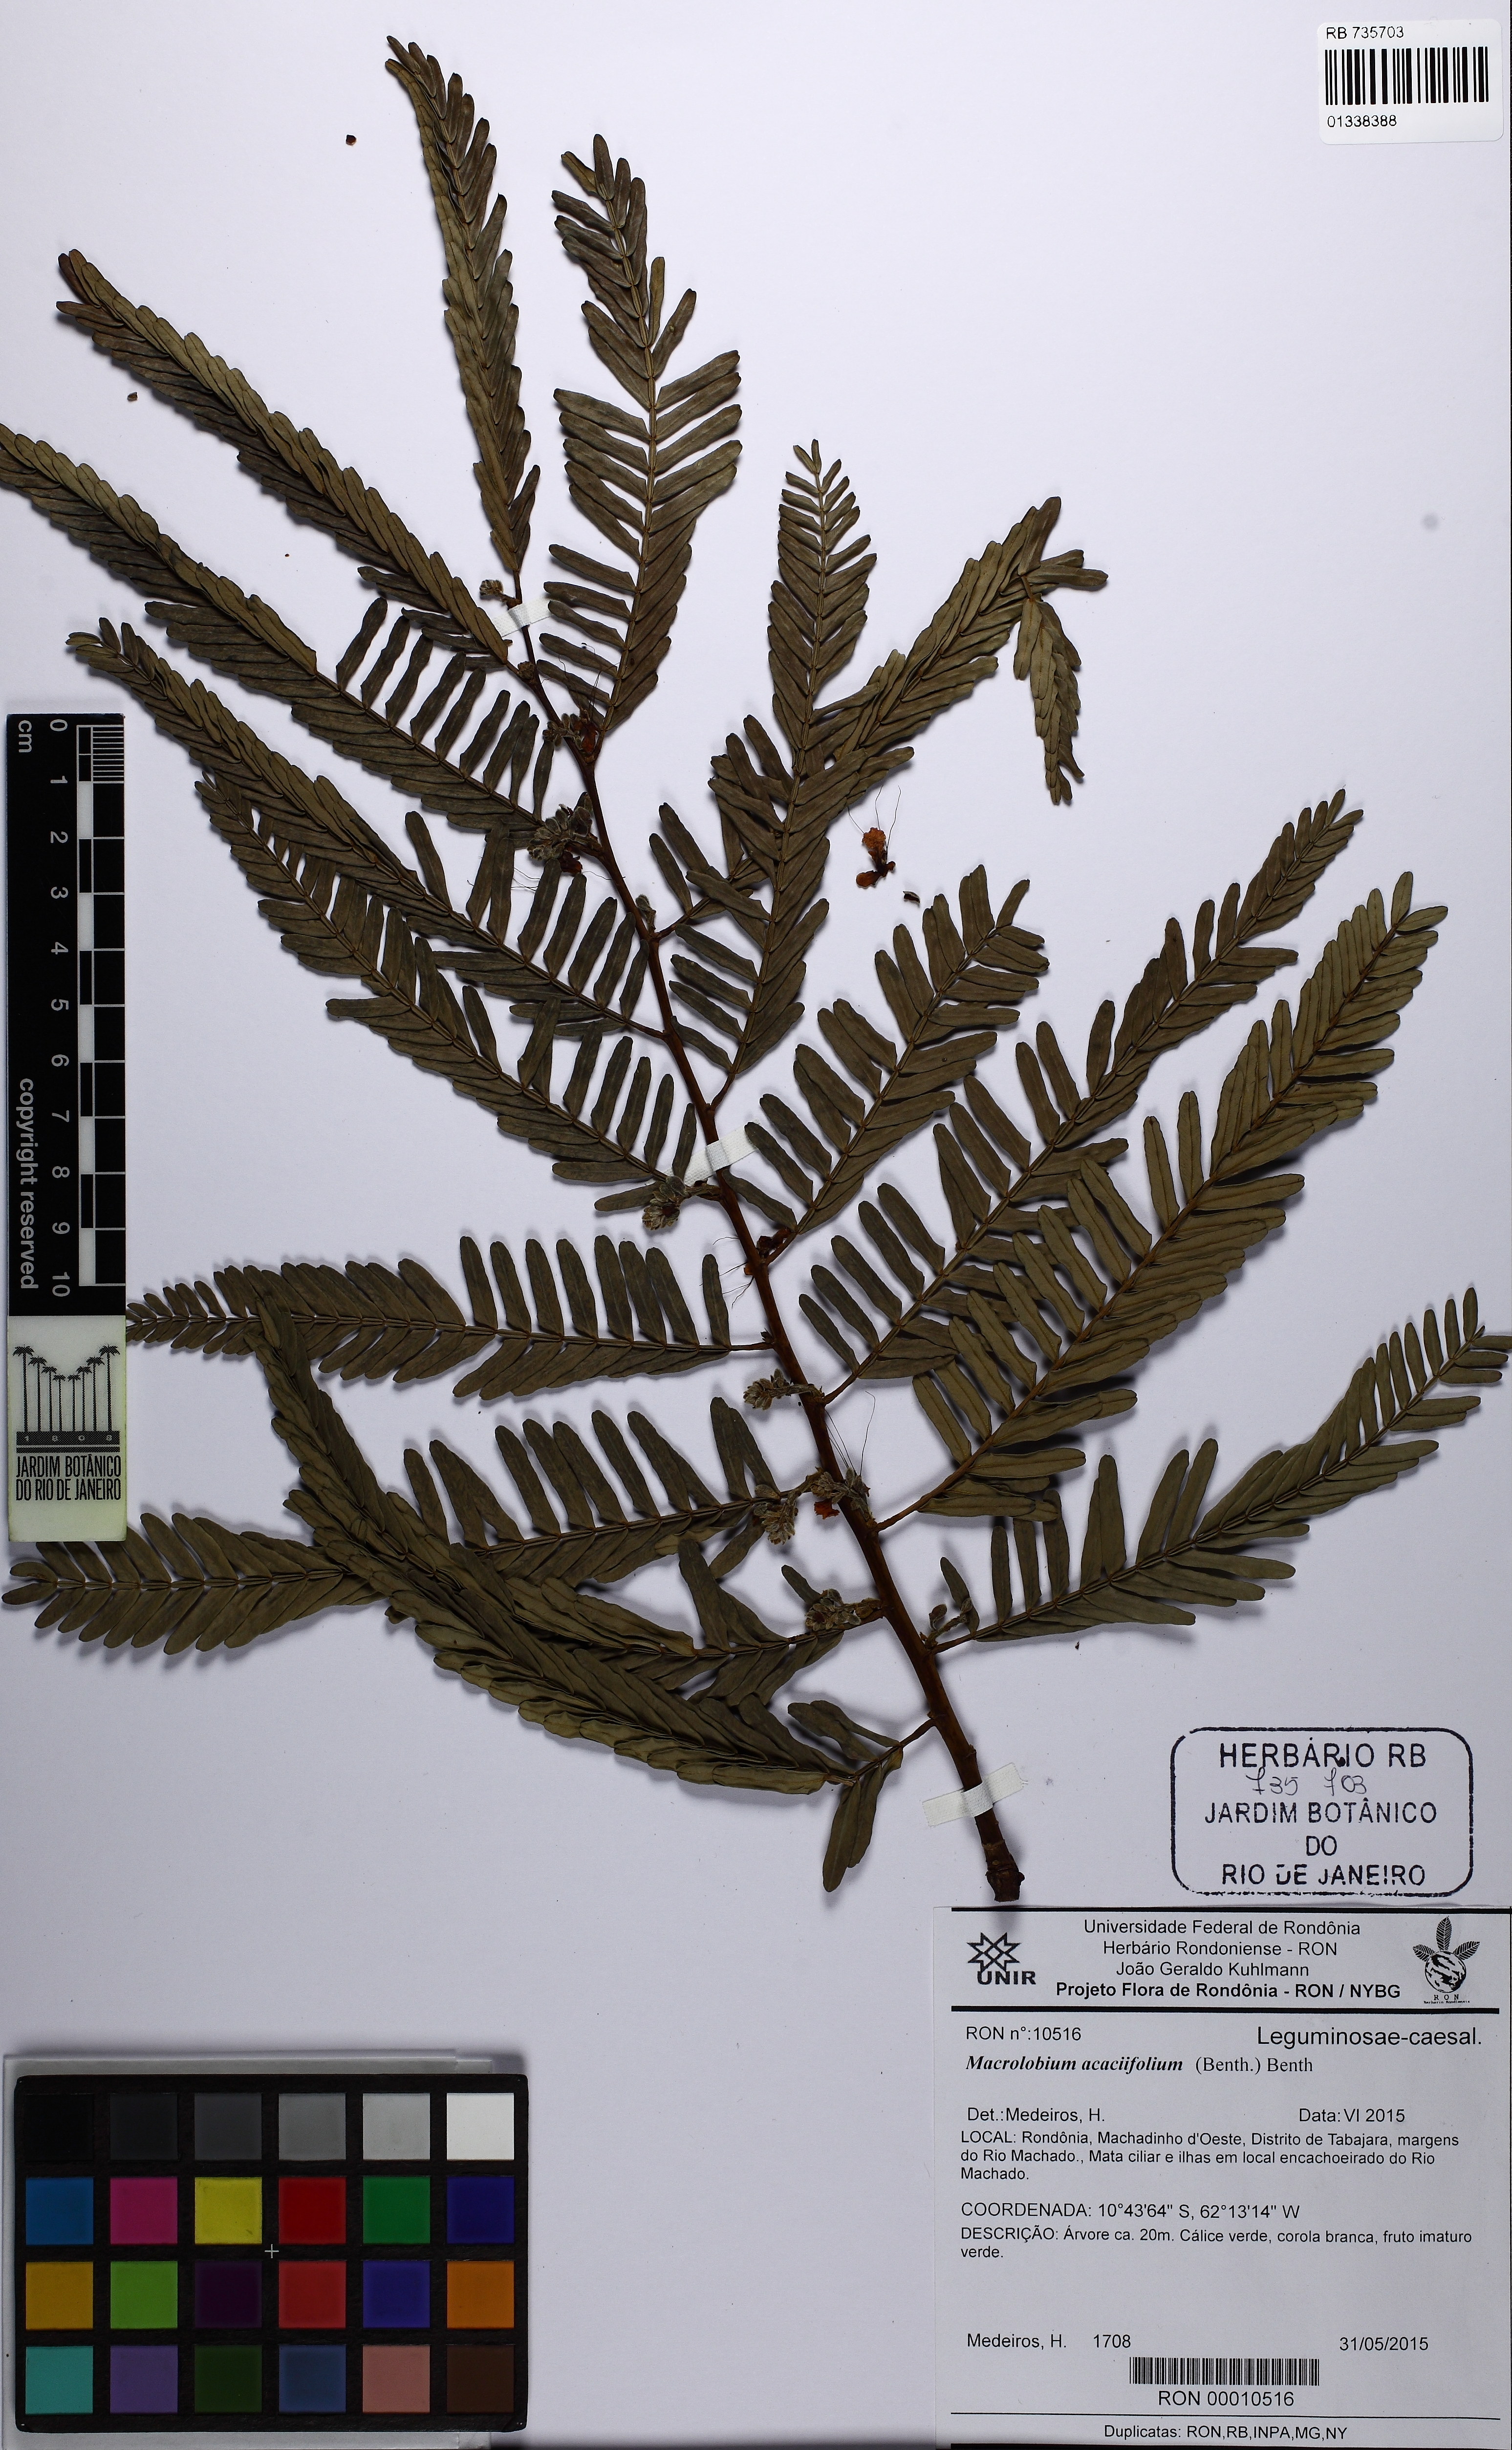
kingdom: Plantae
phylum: Tracheophyta
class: Magnoliopsida
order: Fabales
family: Fabaceae
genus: Macrolobium
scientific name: Macrolobium acaciifolium
